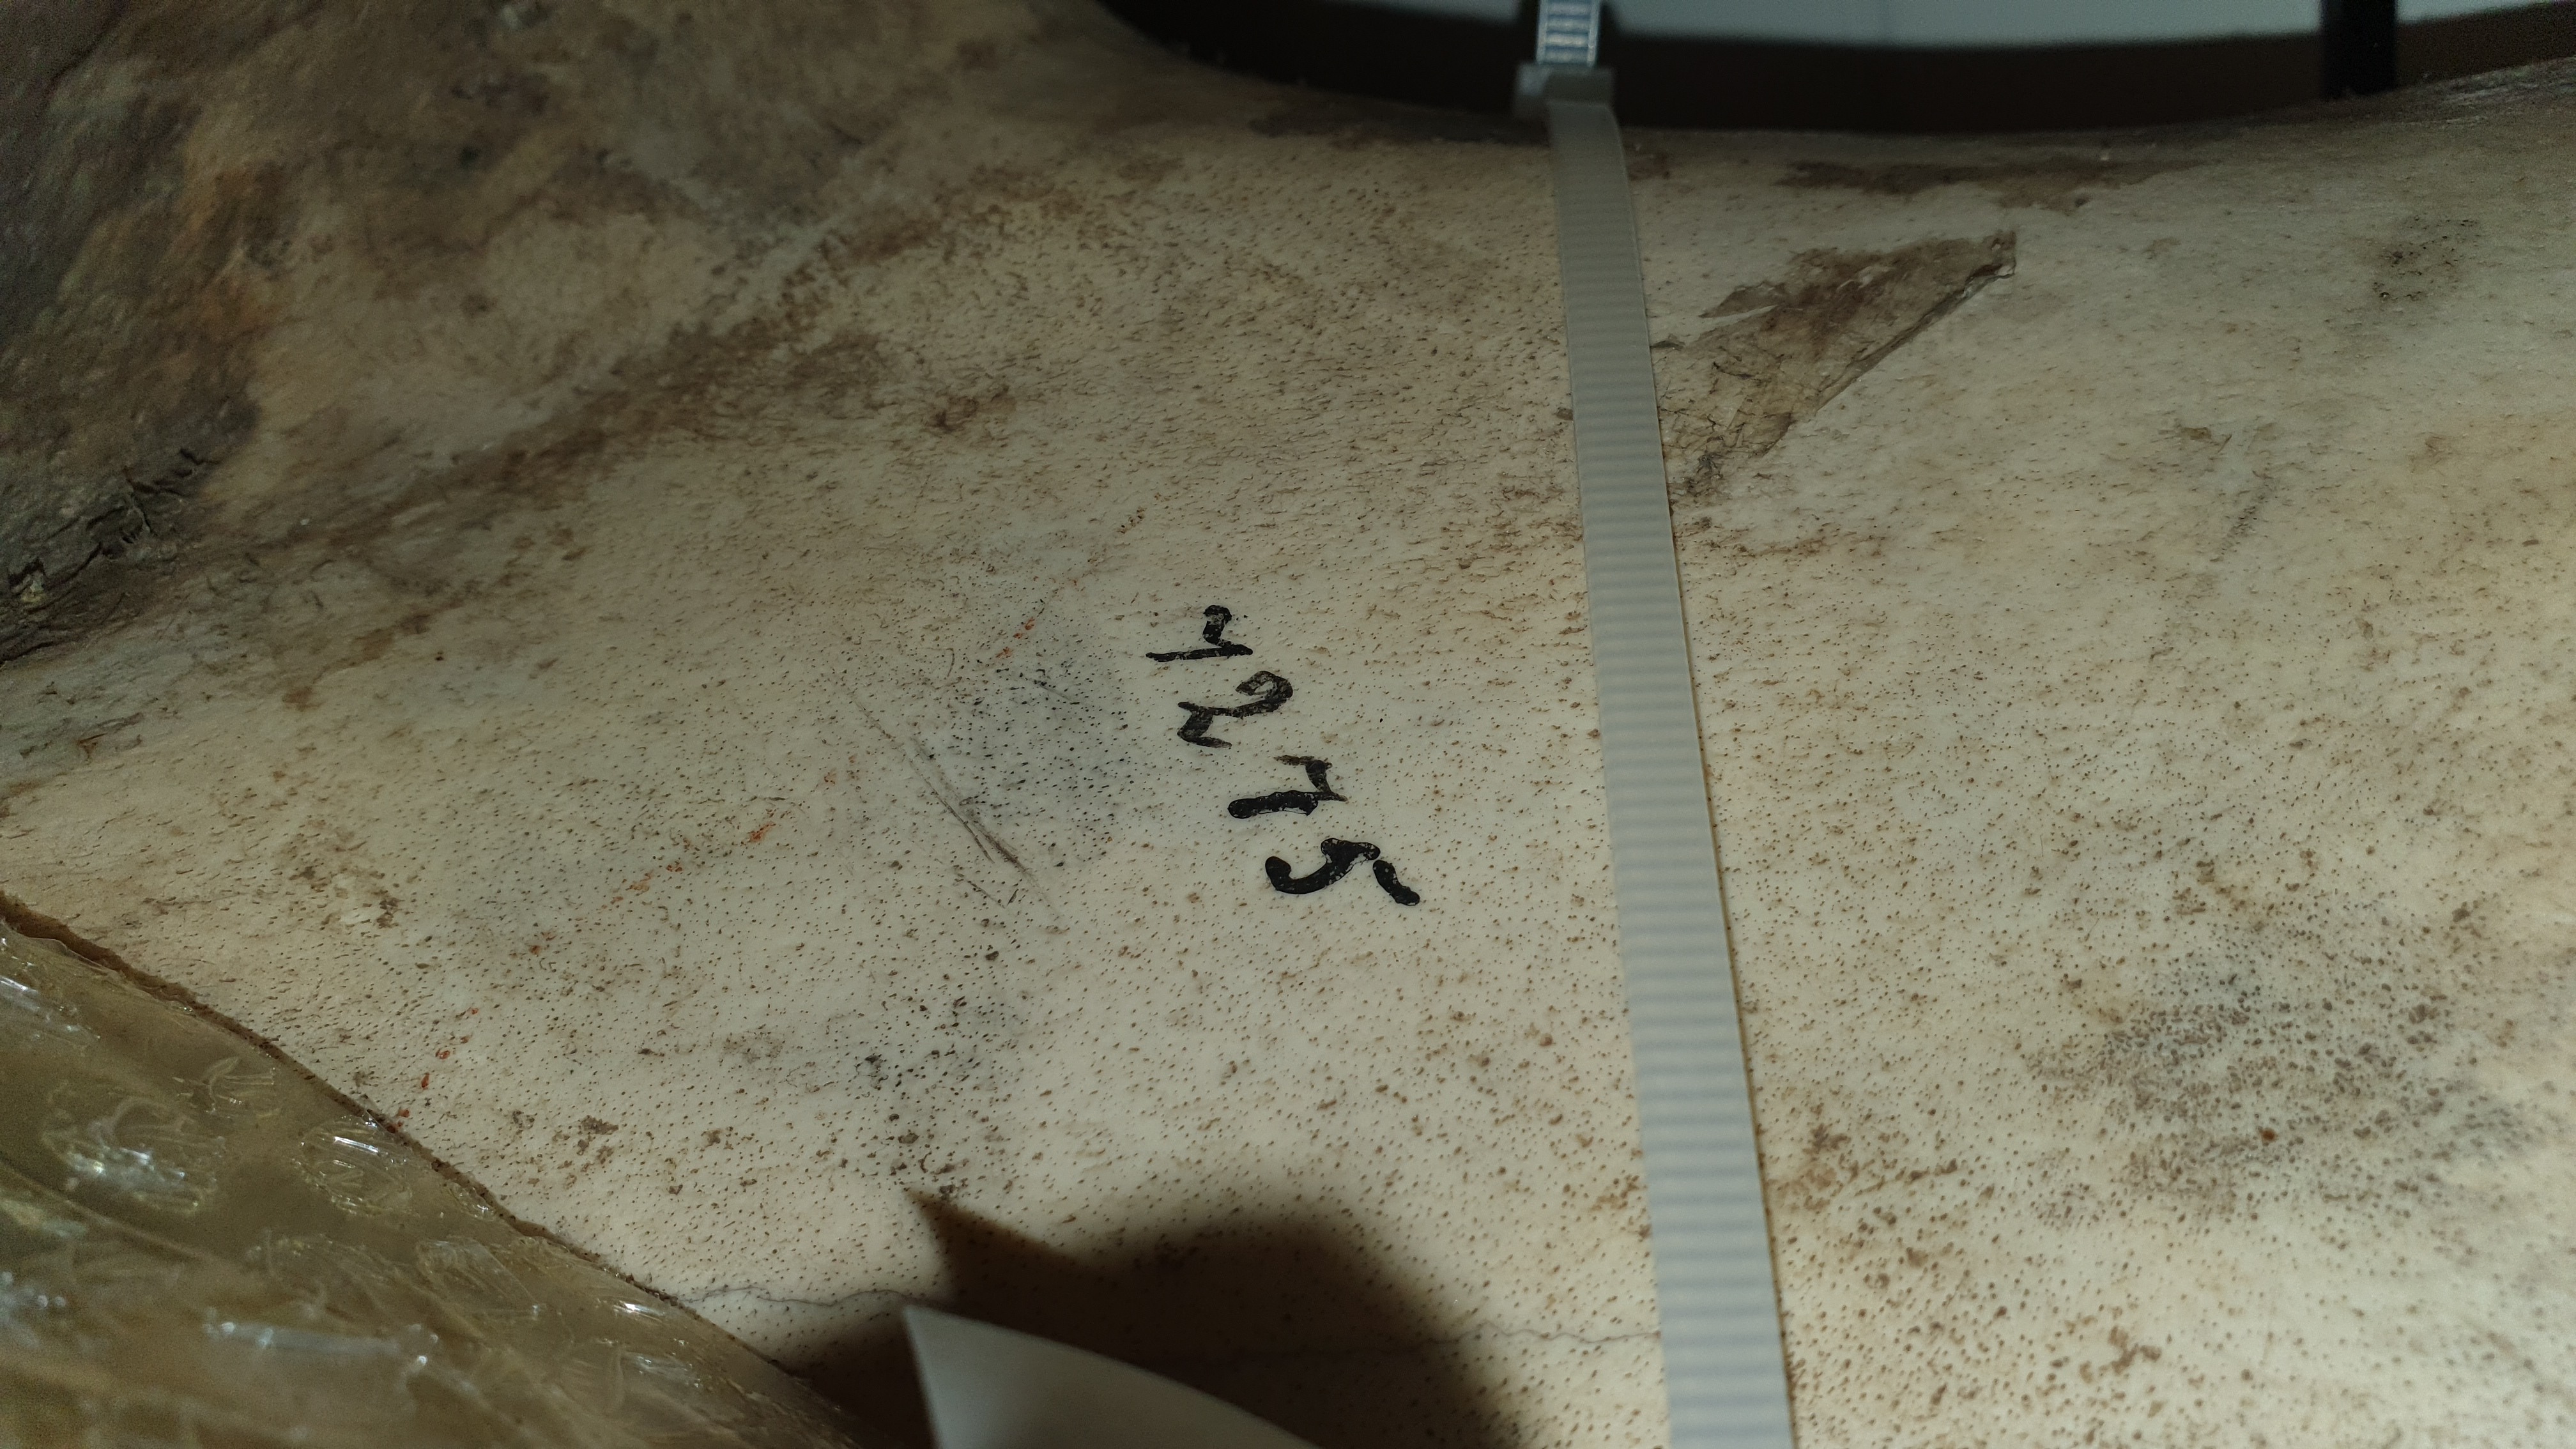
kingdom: Animalia
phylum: Chordata
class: Mammalia
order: Artiodactyla
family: Hippopotamidae
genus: Hippopotamus
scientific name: Hippopotamus
